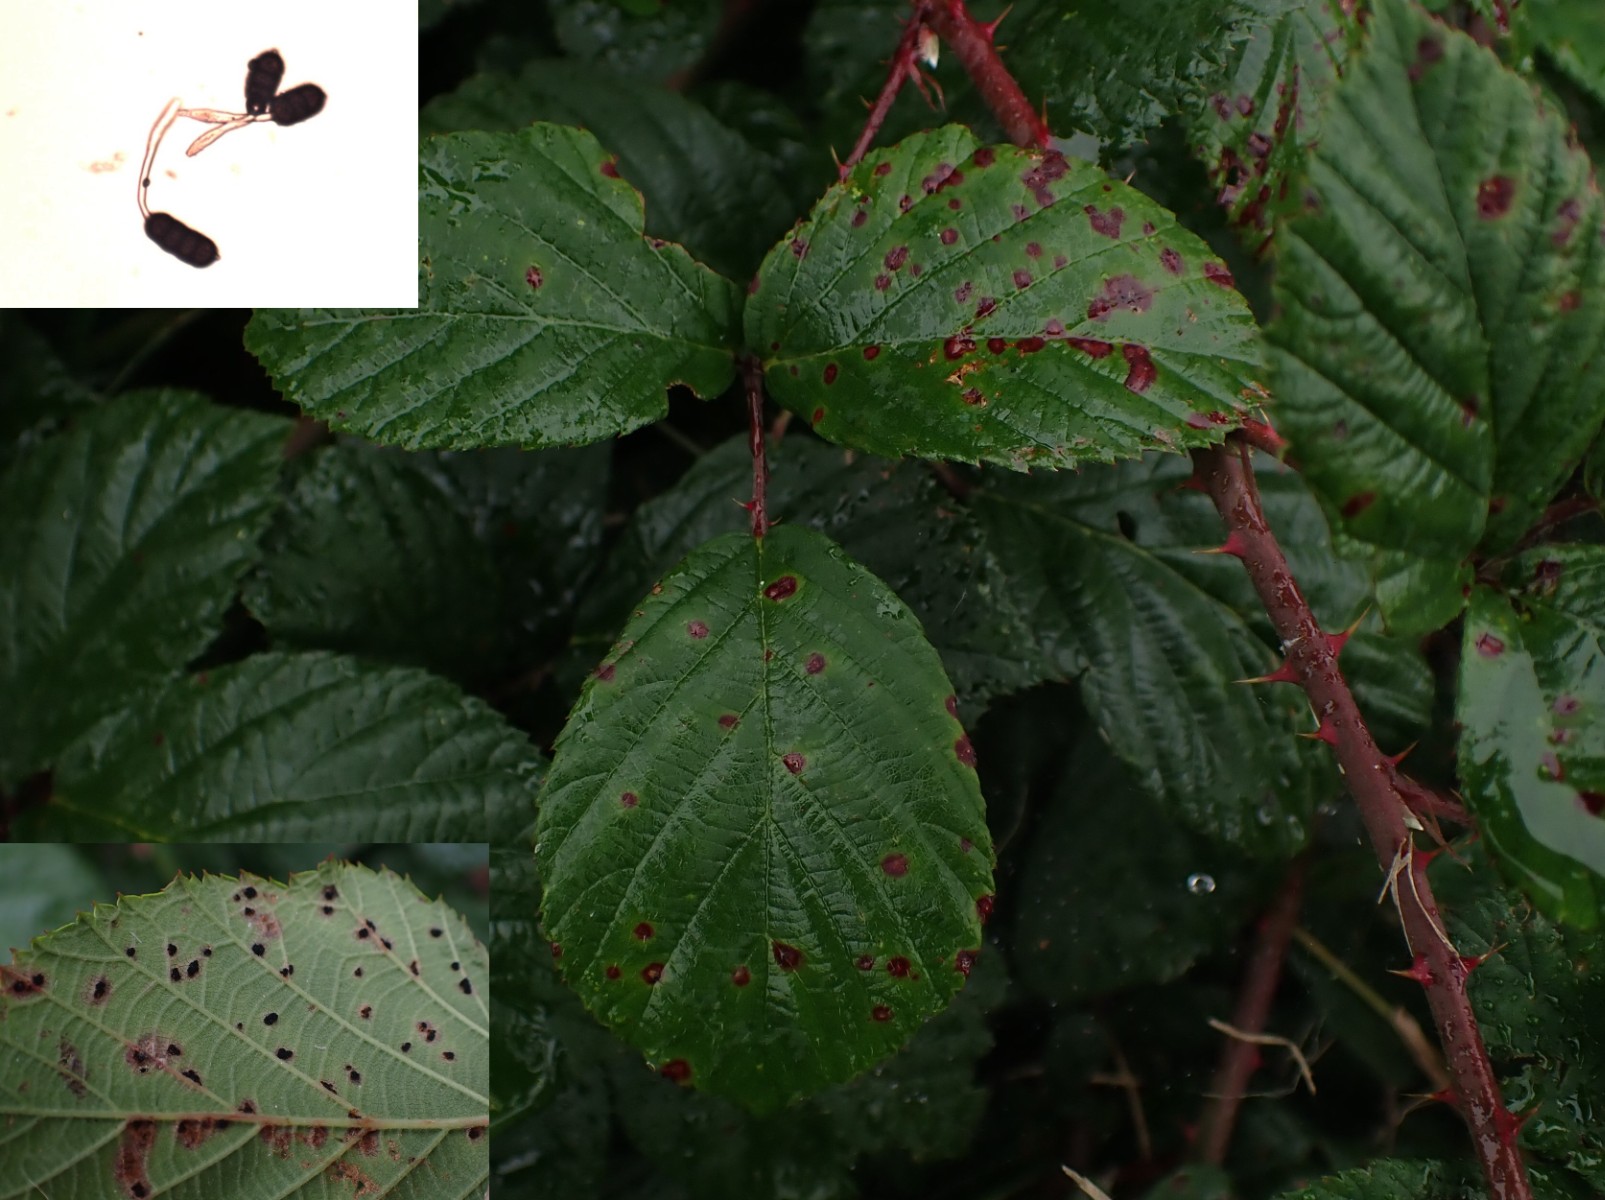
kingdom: Fungi
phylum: Basidiomycota
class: Pucciniomycetes
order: Pucciniales
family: Phragmidiaceae
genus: Phragmidium
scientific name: Phragmidium violaceum
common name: violet flercellerust
